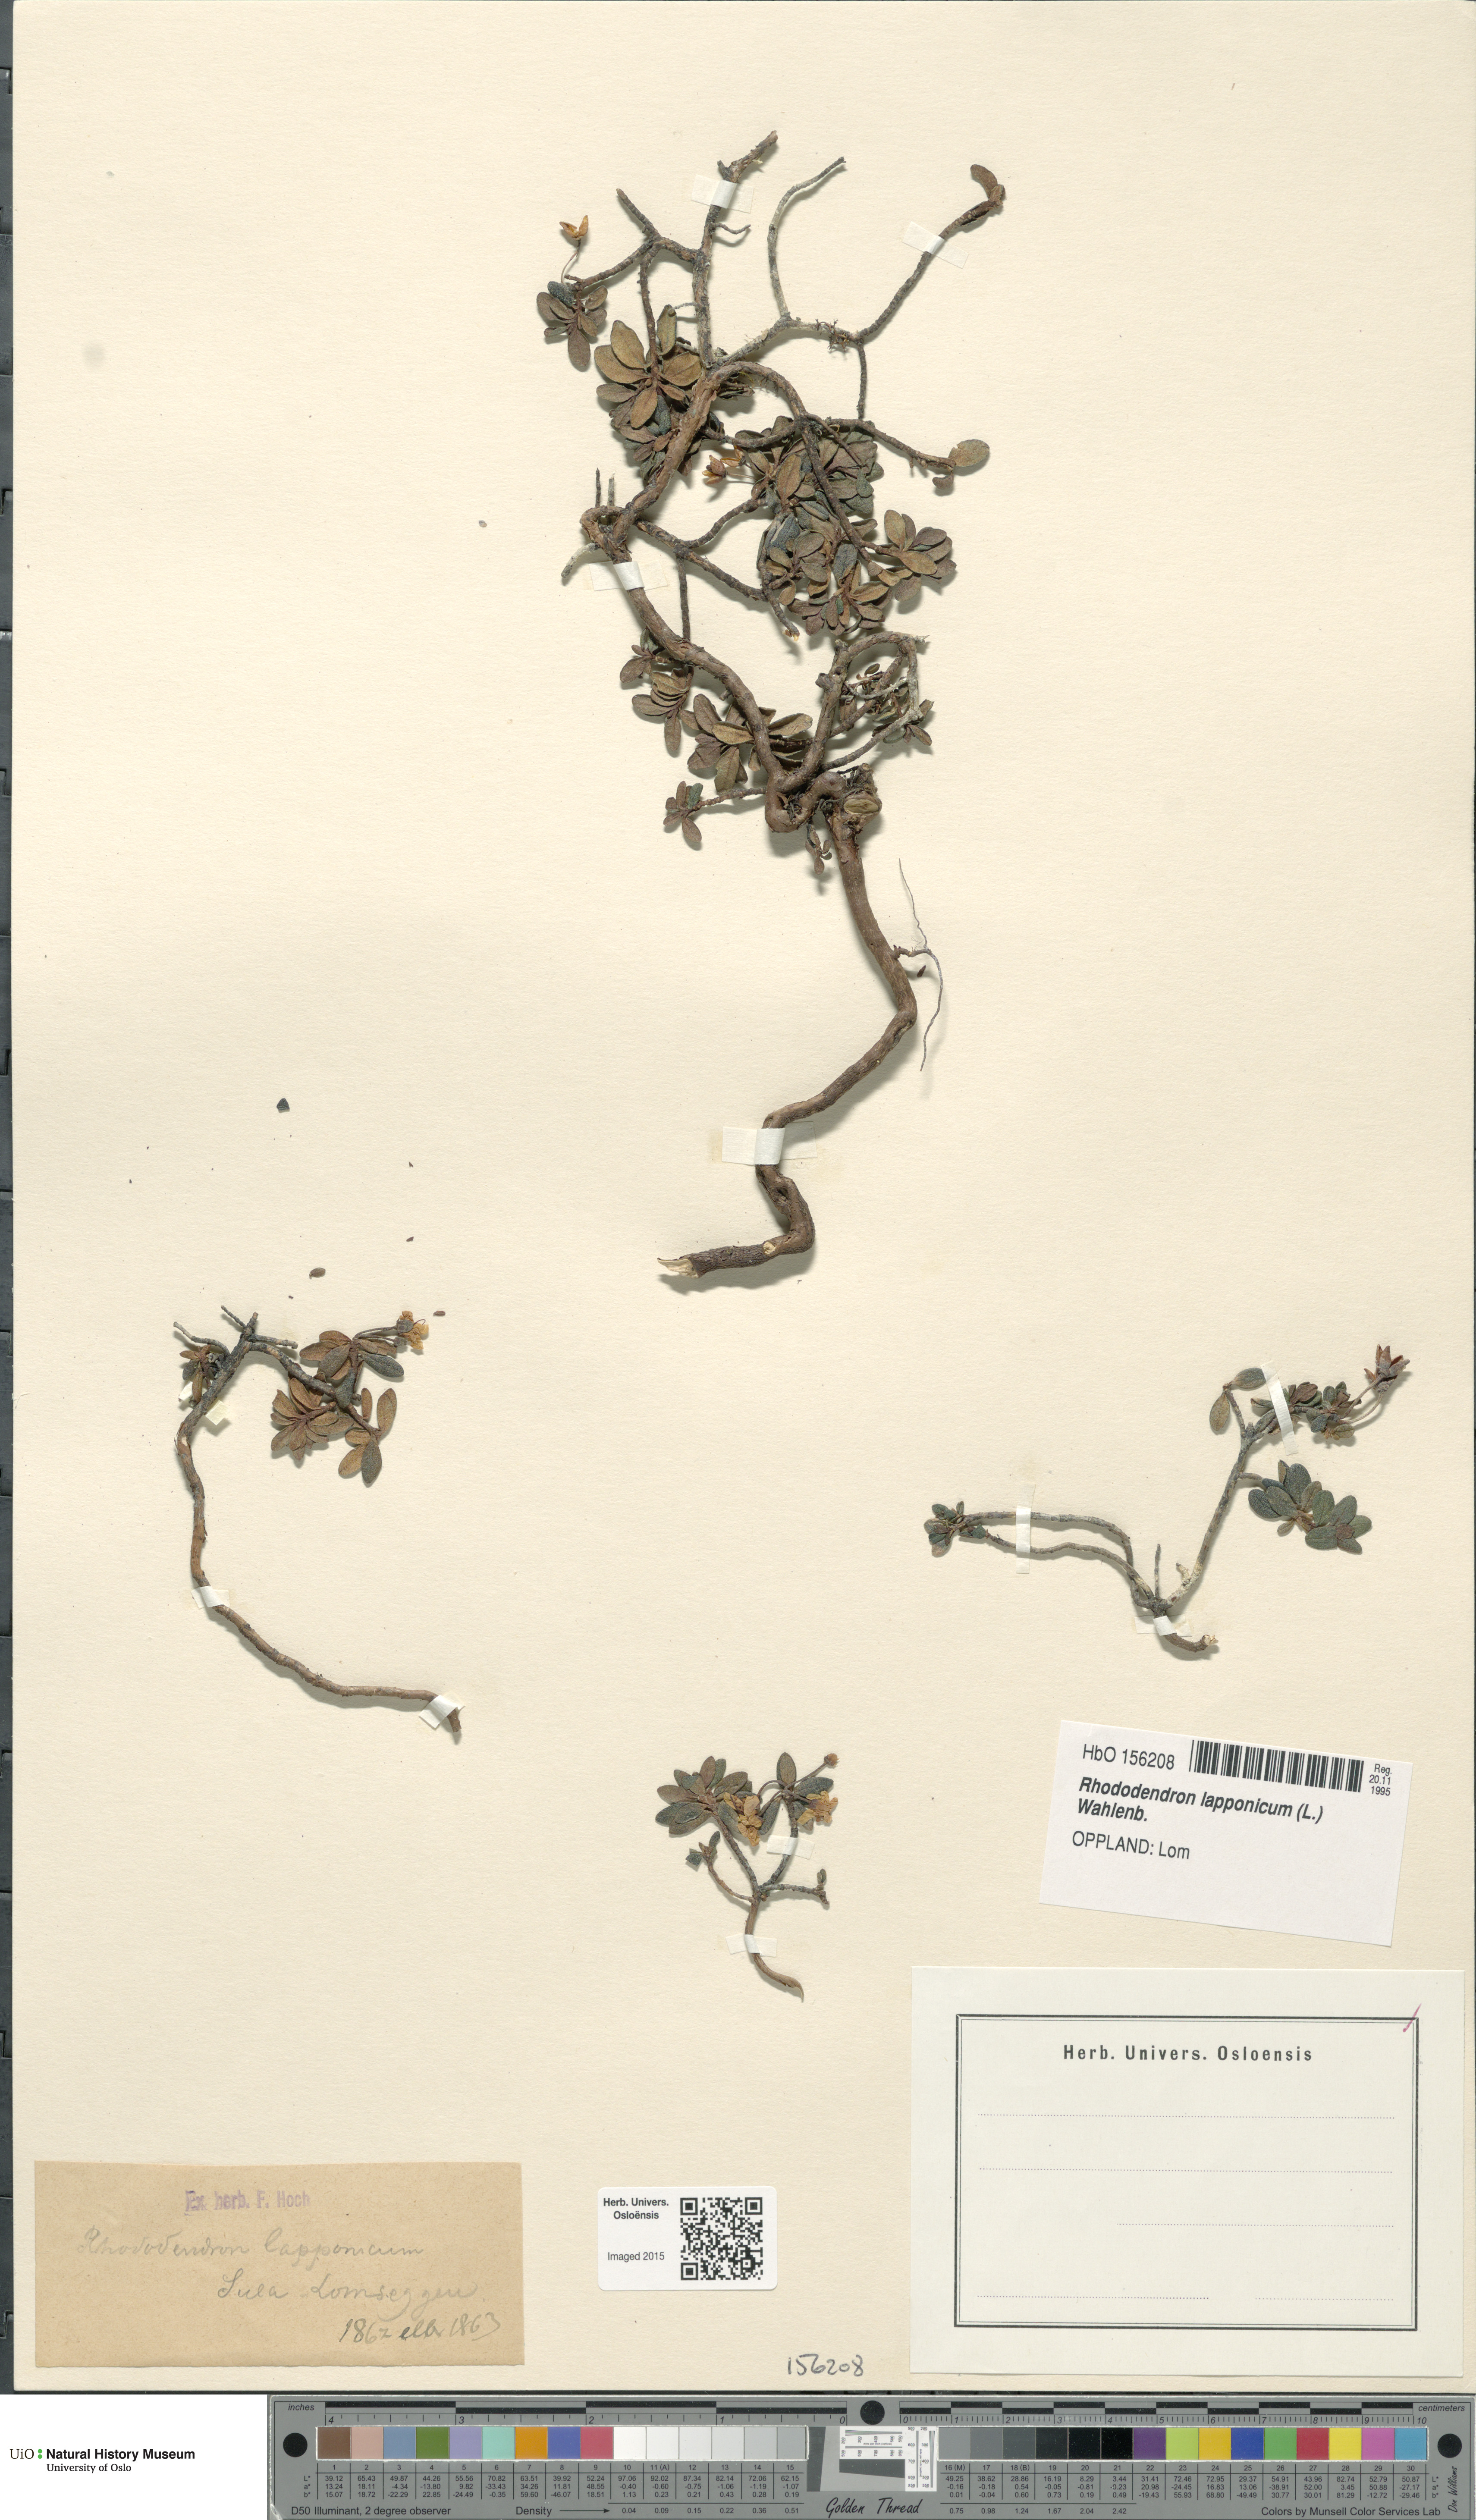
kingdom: Plantae
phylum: Tracheophyta
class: Magnoliopsida
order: Ericales
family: Ericaceae
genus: Rhododendron
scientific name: Rhododendron lapponicum
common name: Lapland rhododendron
